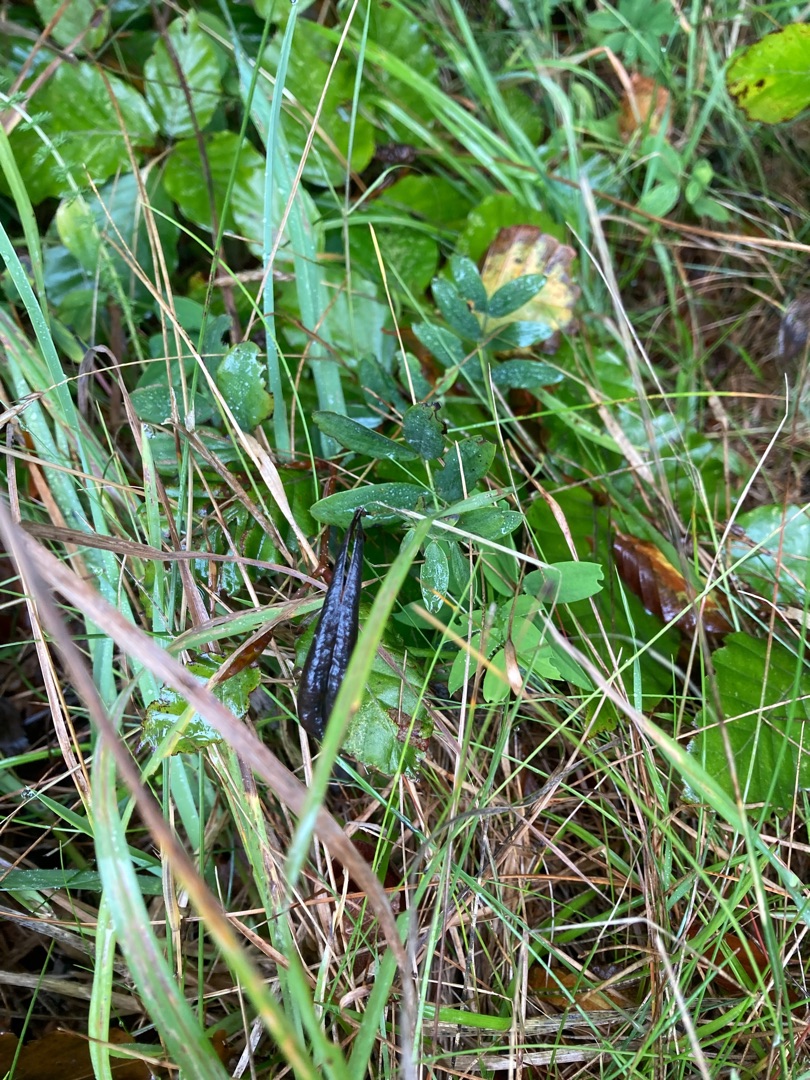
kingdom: Plantae
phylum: Tracheophyta
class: Magnoliopsida
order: Fabales
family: Fabaceae
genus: Lathyrus
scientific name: Lathyrus linifolius
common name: Krat-fladbælg
